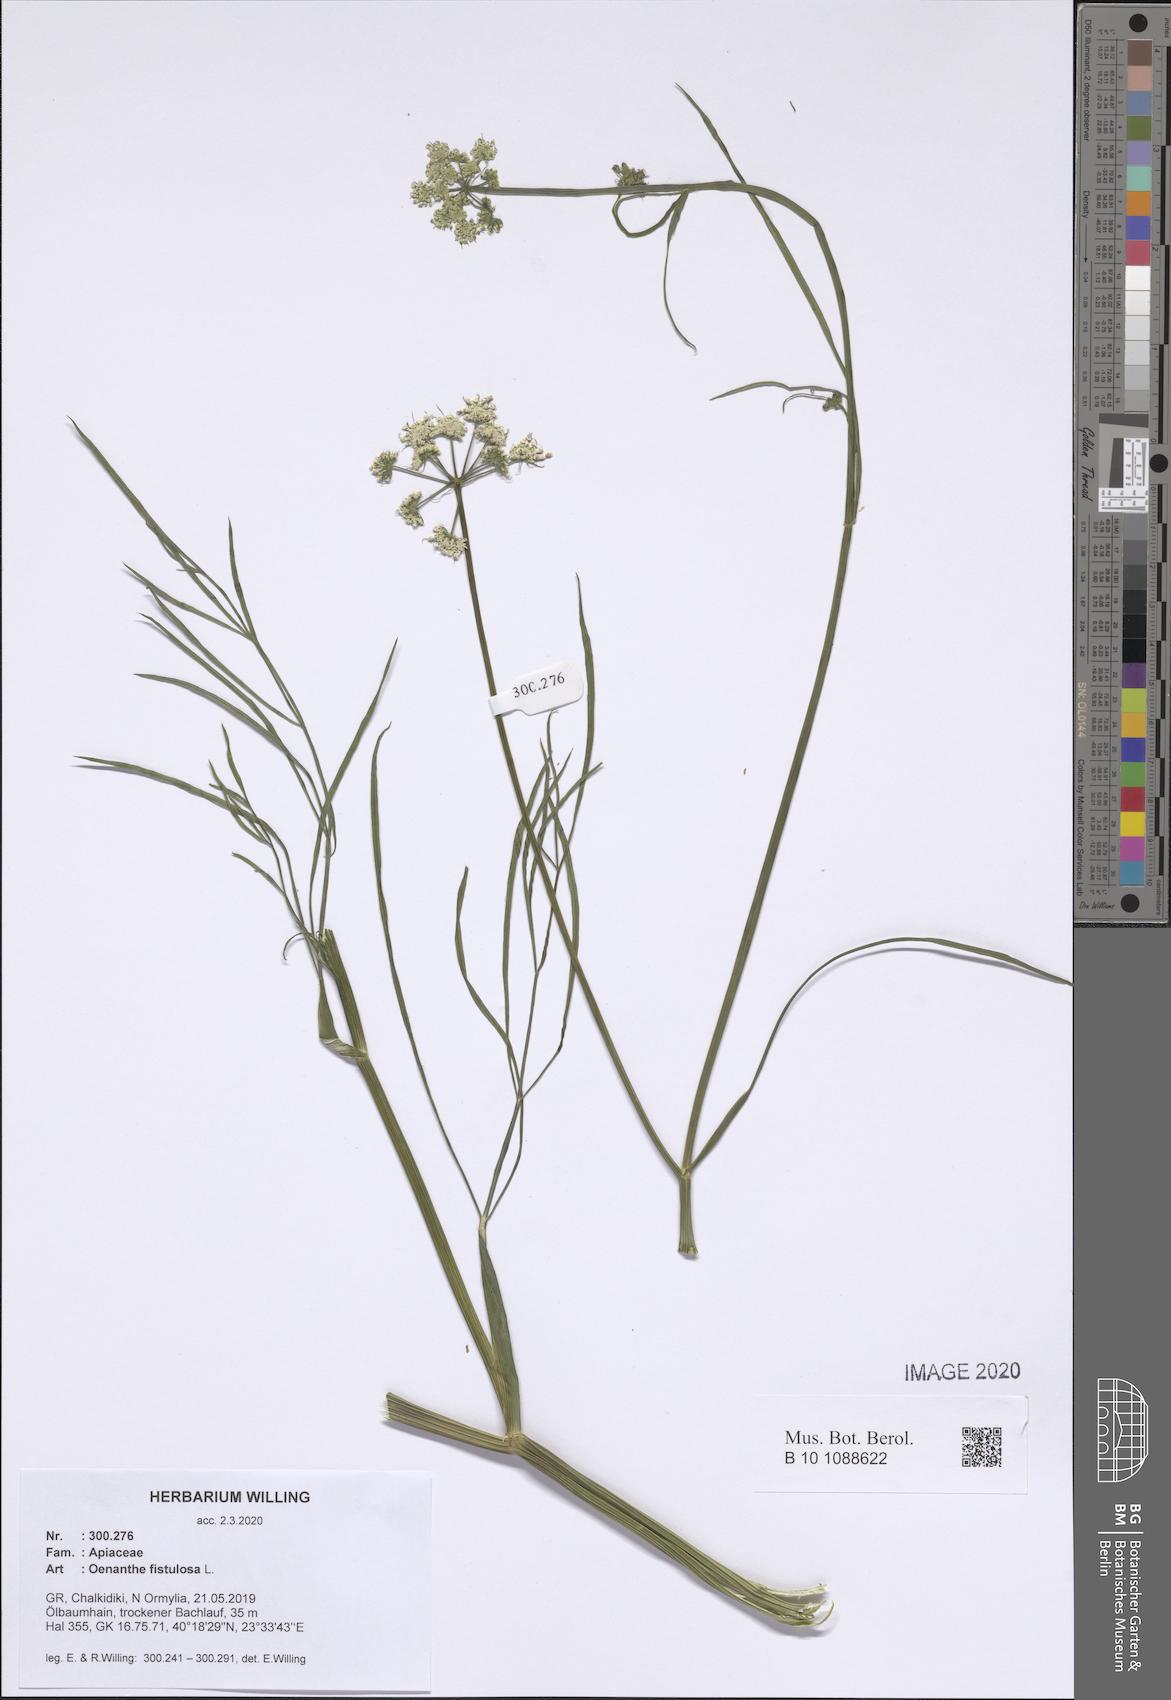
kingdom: Plantae
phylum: Tracheophyta
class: Magnoliopsida
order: Apiales
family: Apiaceae
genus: Oenanthe
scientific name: Oenanthe fistulosa
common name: Tubular water-dropwort
